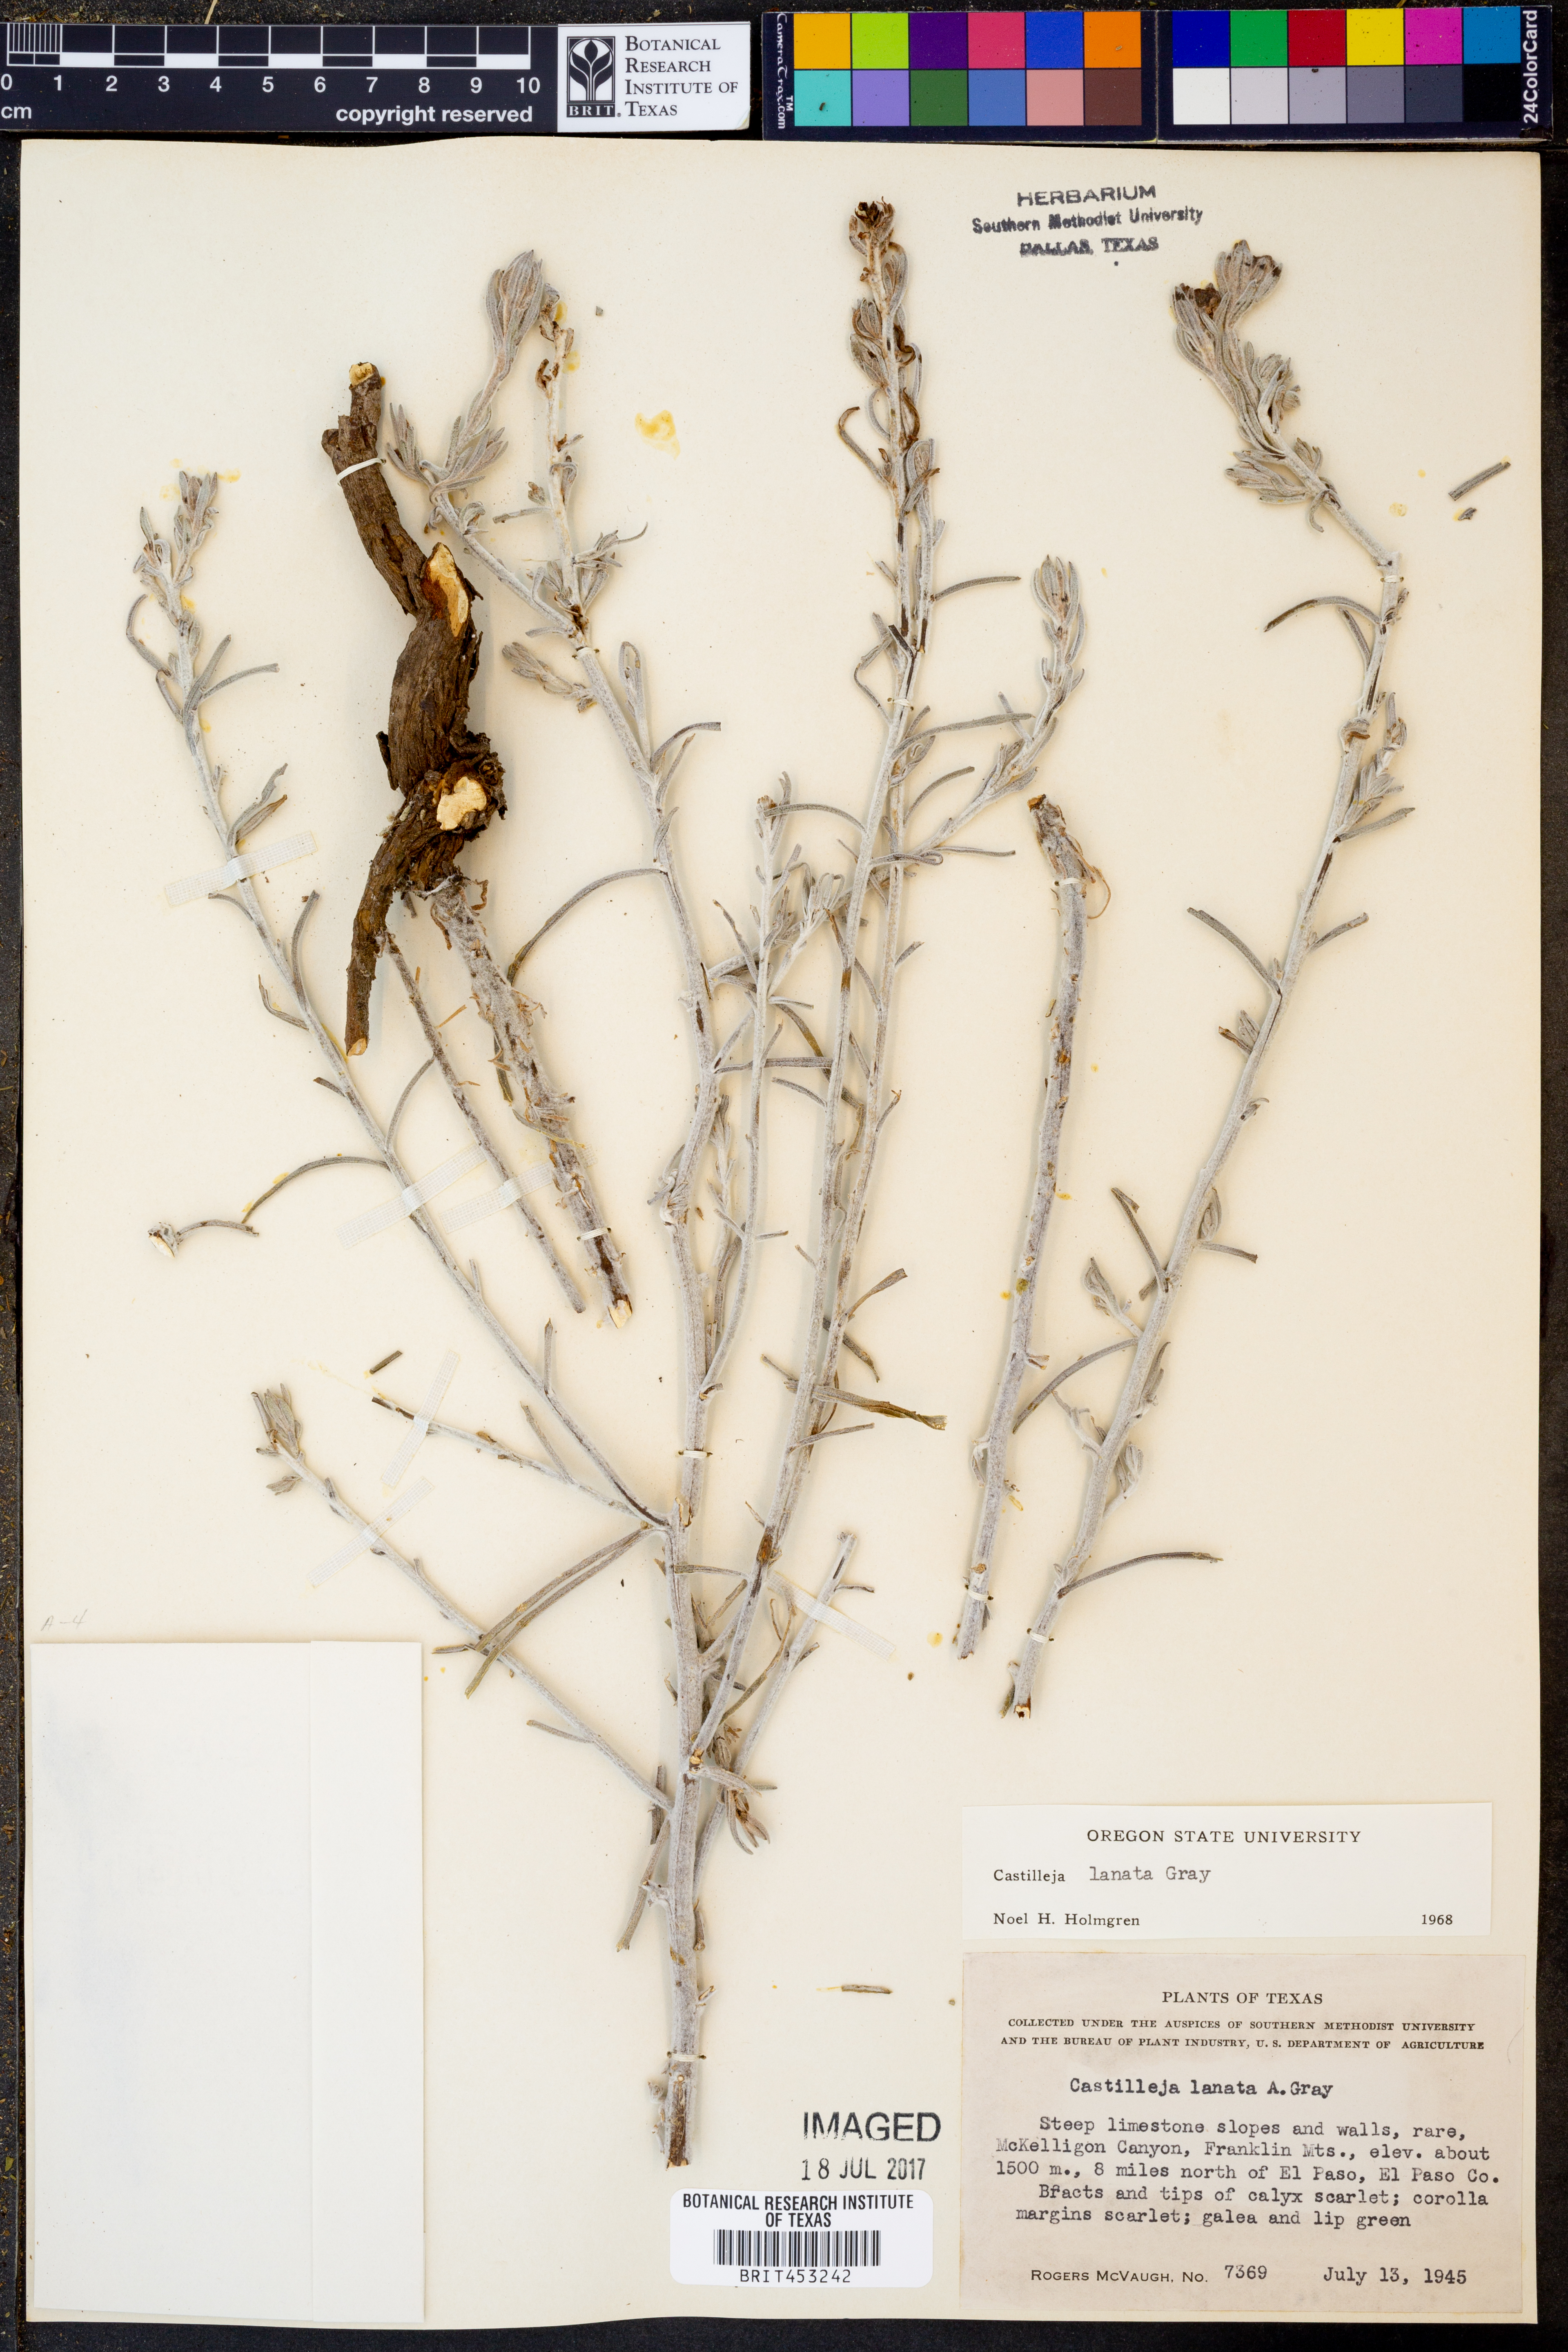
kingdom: Plantae
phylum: Tracheophyta
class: Magnoliopsida
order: Lamiales
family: Orobanchaceae
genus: Castilleja
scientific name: Castilleja lanata
